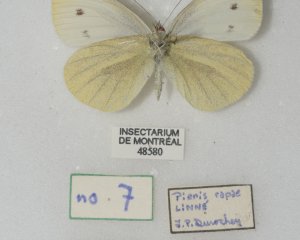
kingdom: Animalia
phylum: Arthropoda
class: Insecta
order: Lepidoptera
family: Pieridae
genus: Pieris
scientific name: Pieris rapae
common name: Cabbage White
